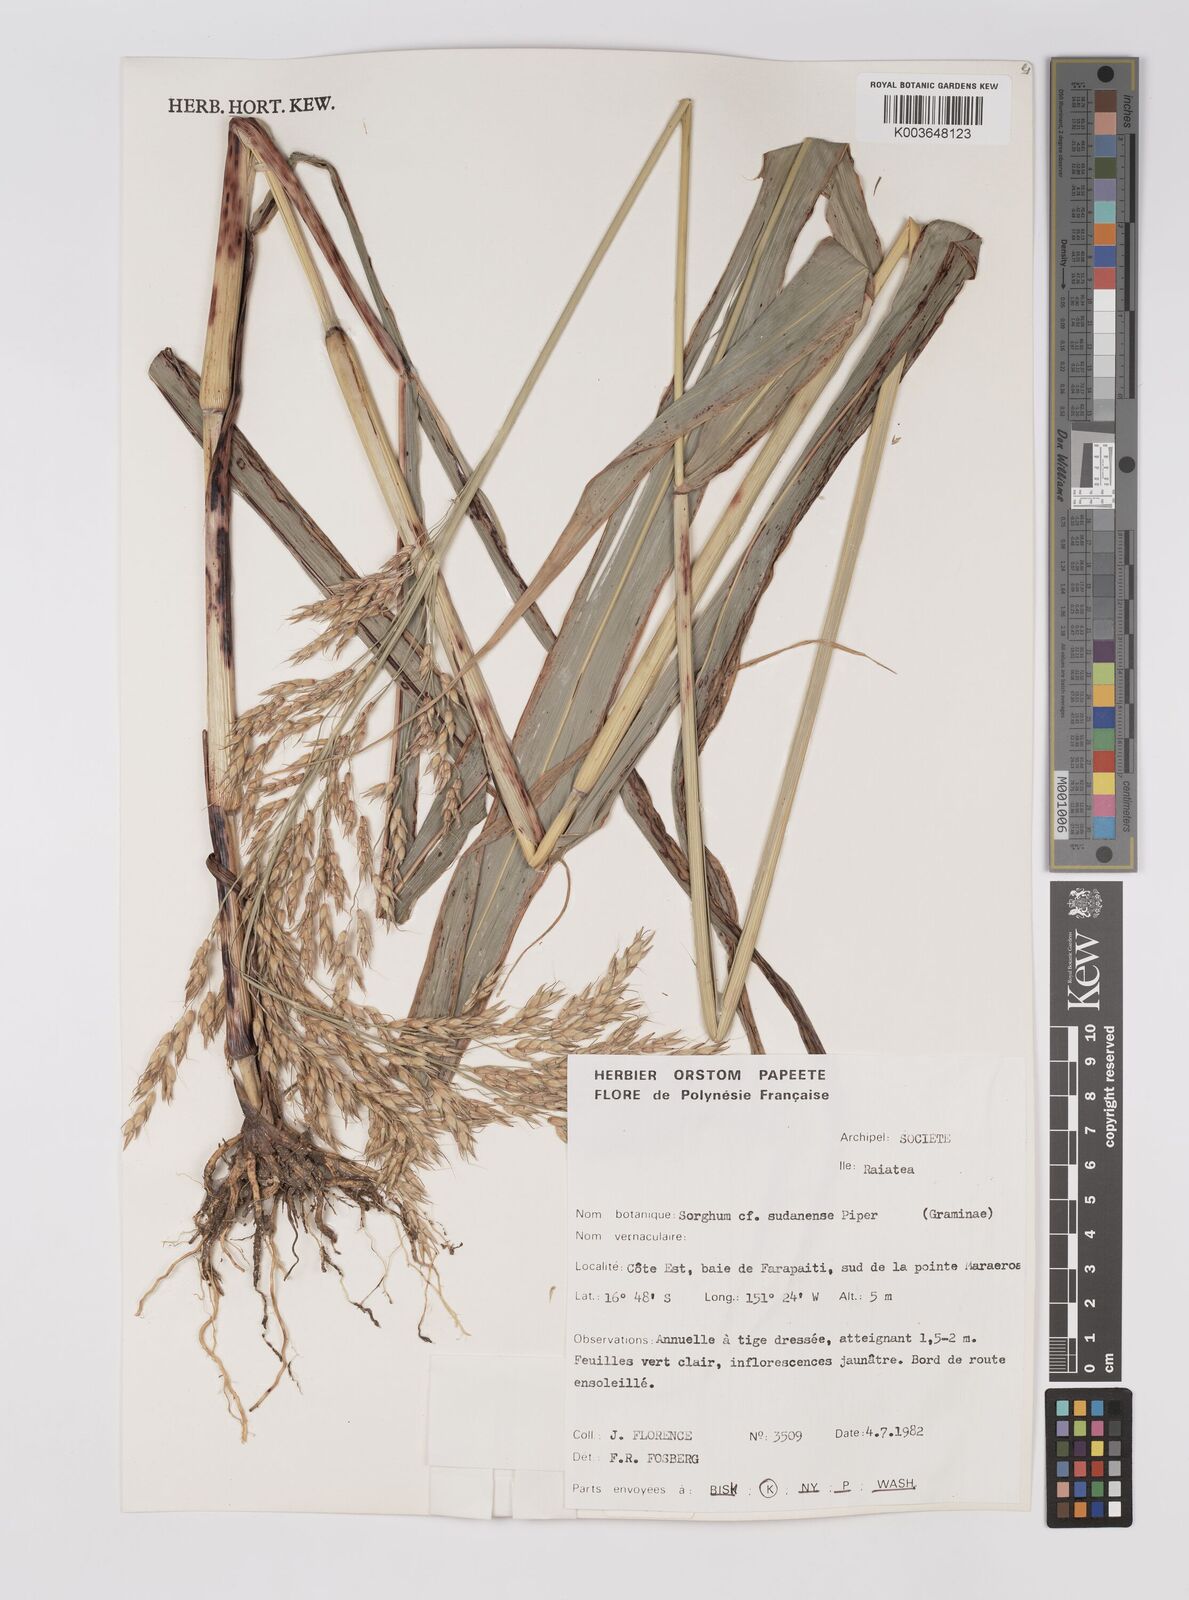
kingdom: Plantae
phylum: Tracheophyta
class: Liliopsida
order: Poales
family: Poaceae
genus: Sorghum
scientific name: Sorghum drummondii
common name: Sudangrass
